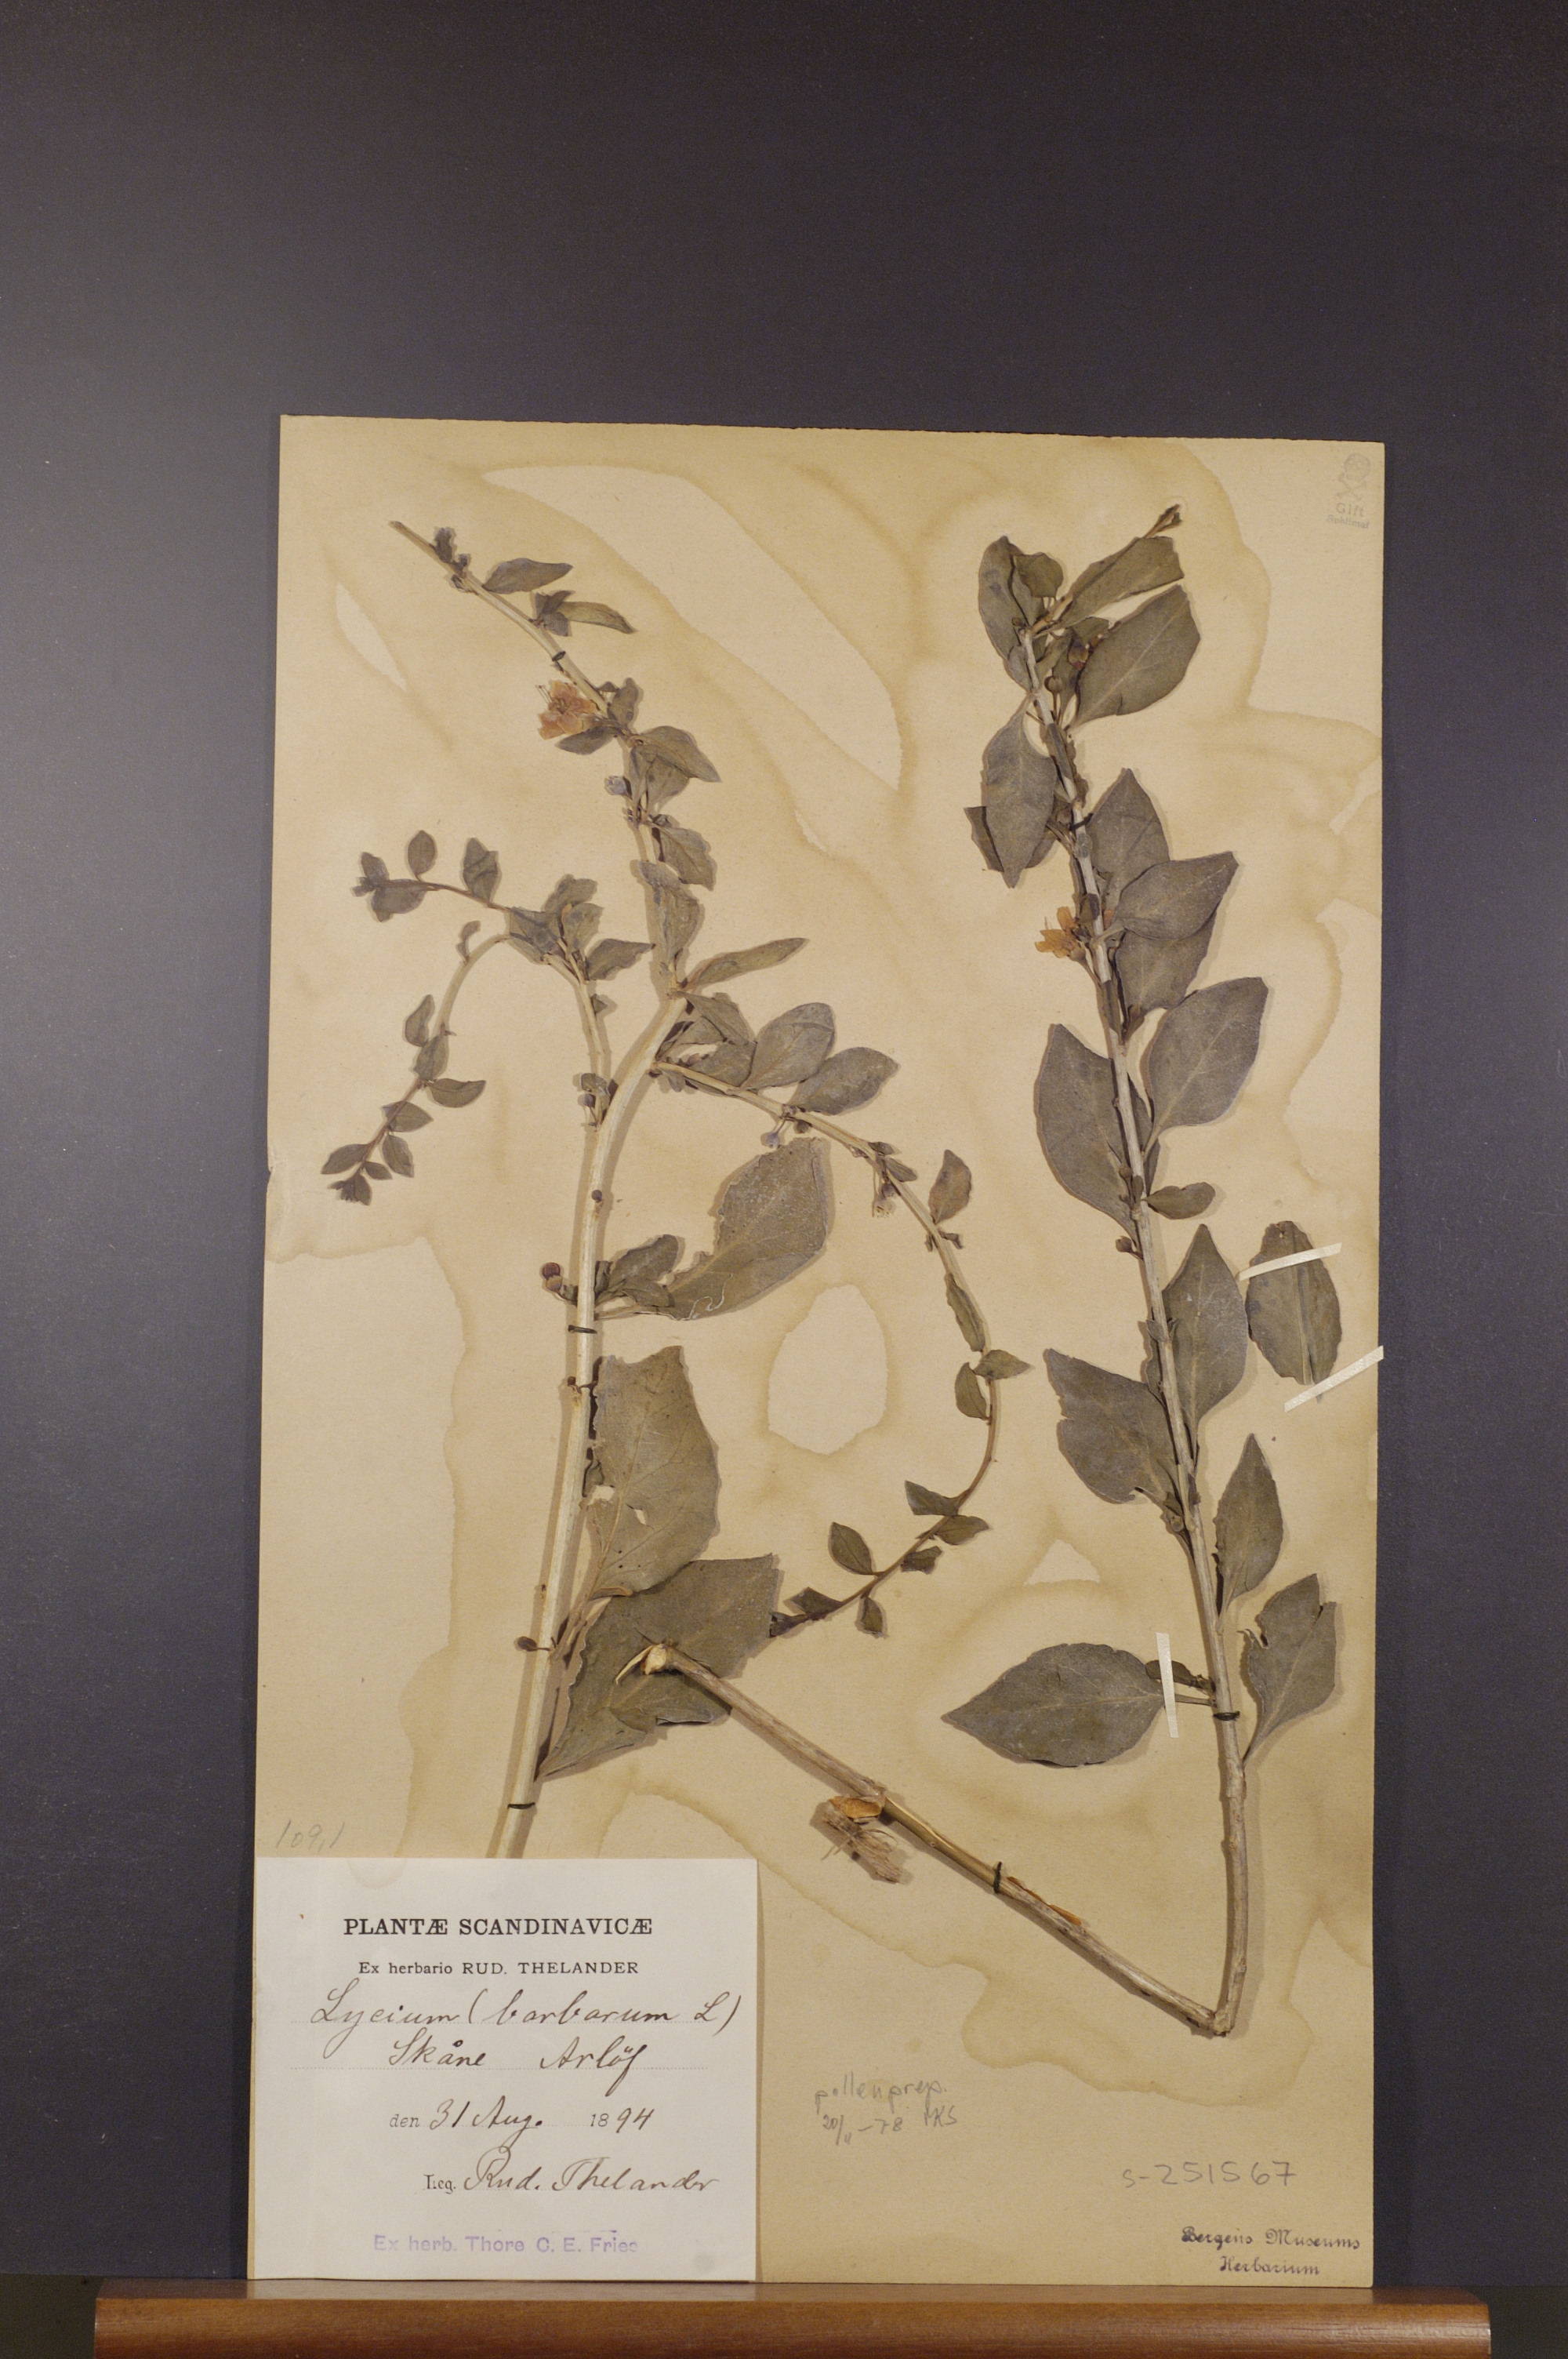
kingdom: Plantae
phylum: Tracheophyta
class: Magnoliopsida
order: Solanales
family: Solanaceae
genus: Lycium
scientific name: Lycium barbarum
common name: Duke of argyll's teaplant
